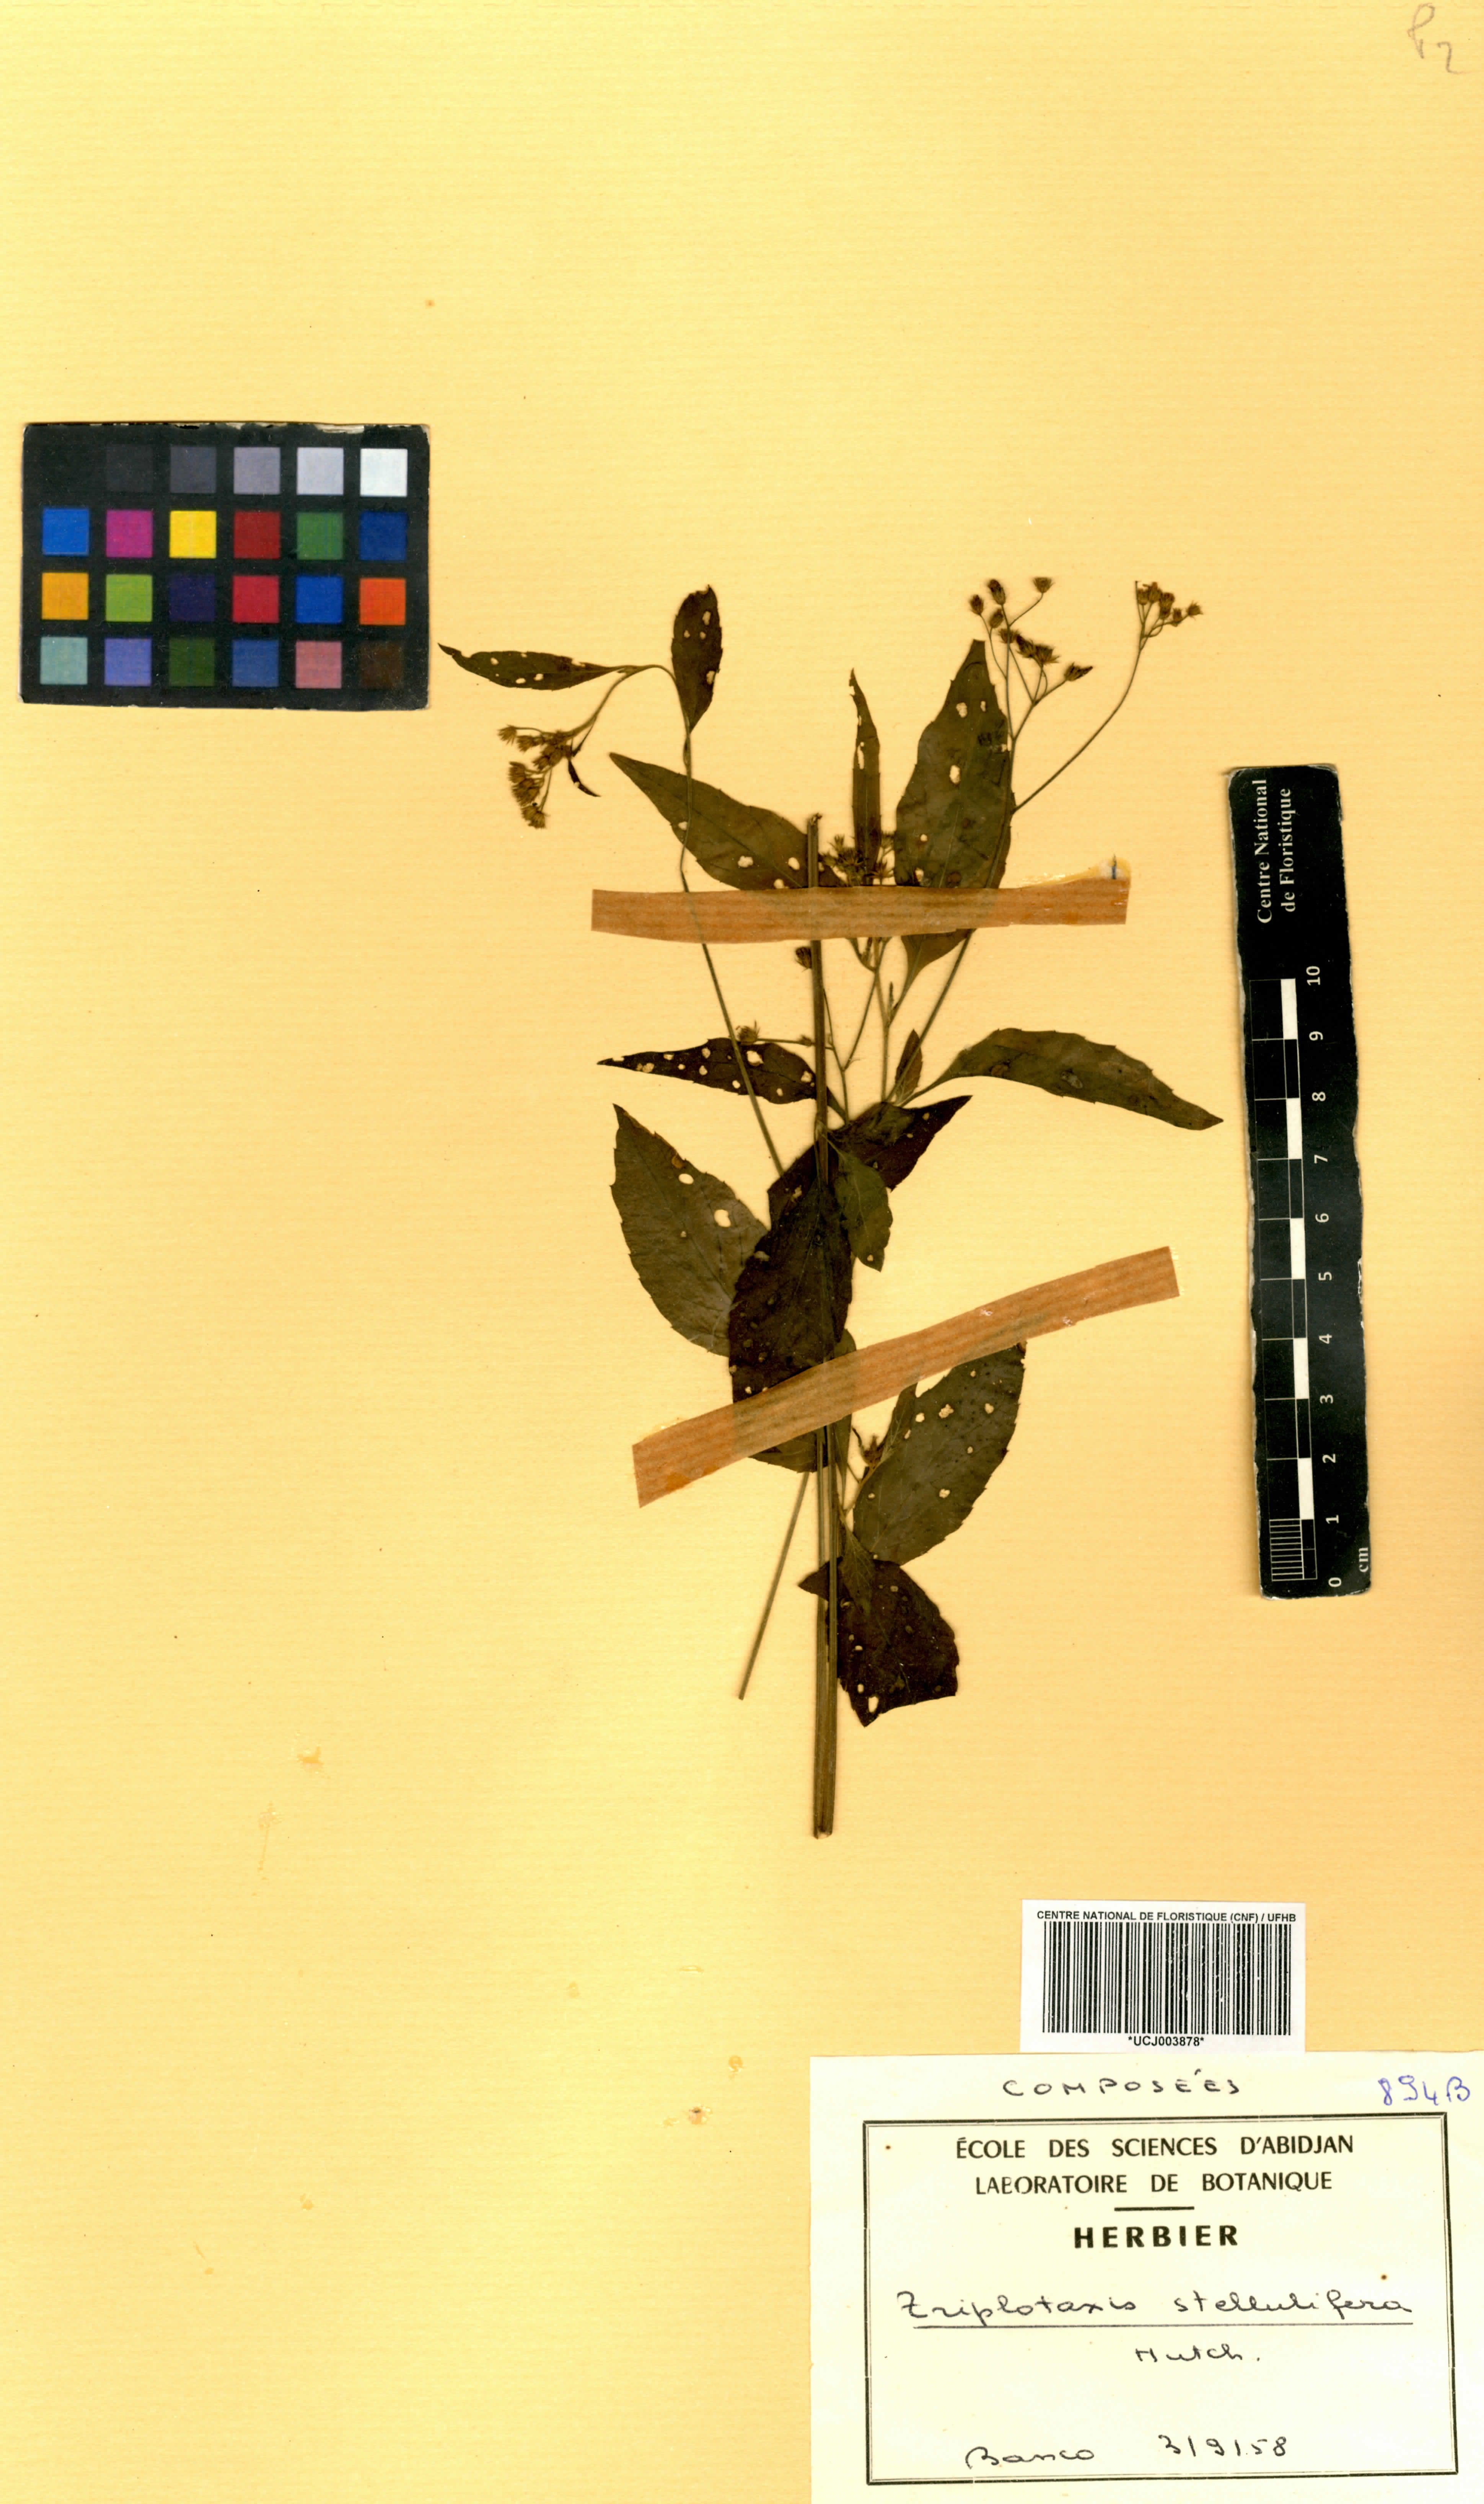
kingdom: Plantae
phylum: Tracheophyta
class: Magnoliopsida
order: Asterales
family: Asteraceae
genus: Cyanthillium
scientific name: Cyanthillium stelluliferum
